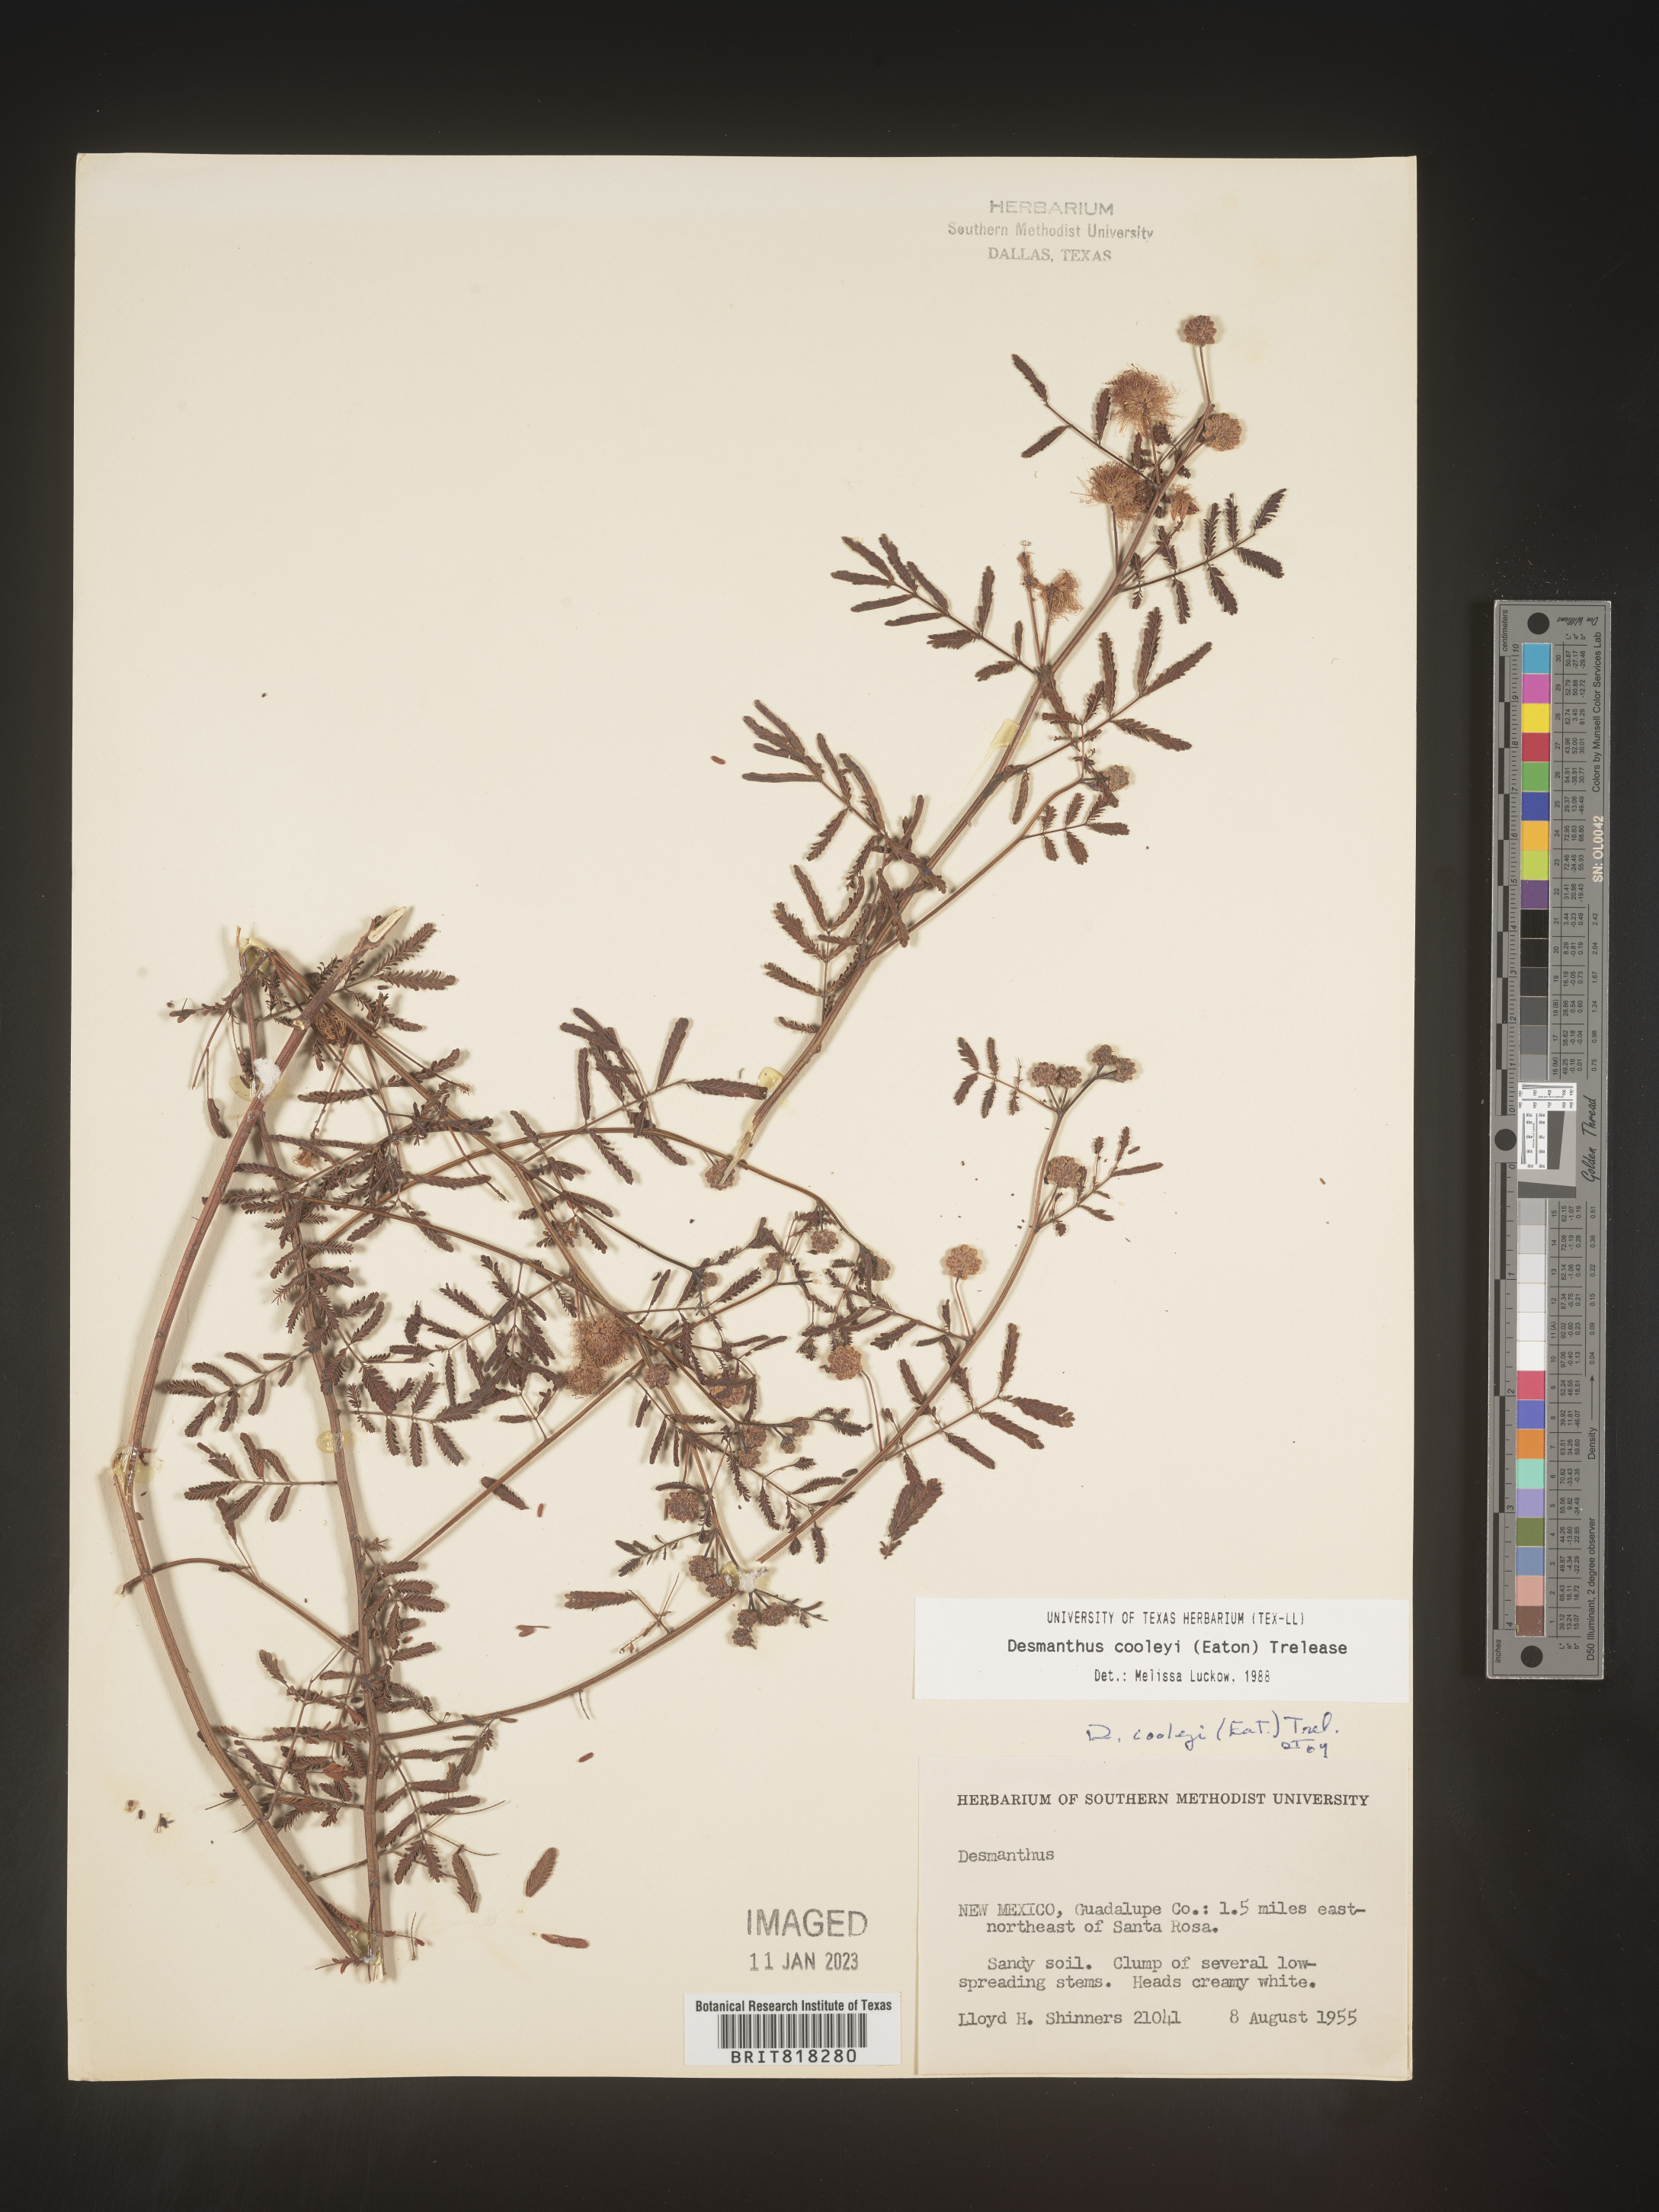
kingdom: Plantae
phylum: Tracheophyta
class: Magnoliopsida
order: Fabales
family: Fabaceae
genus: Desmanthus
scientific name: Desmanthus cooleyi
